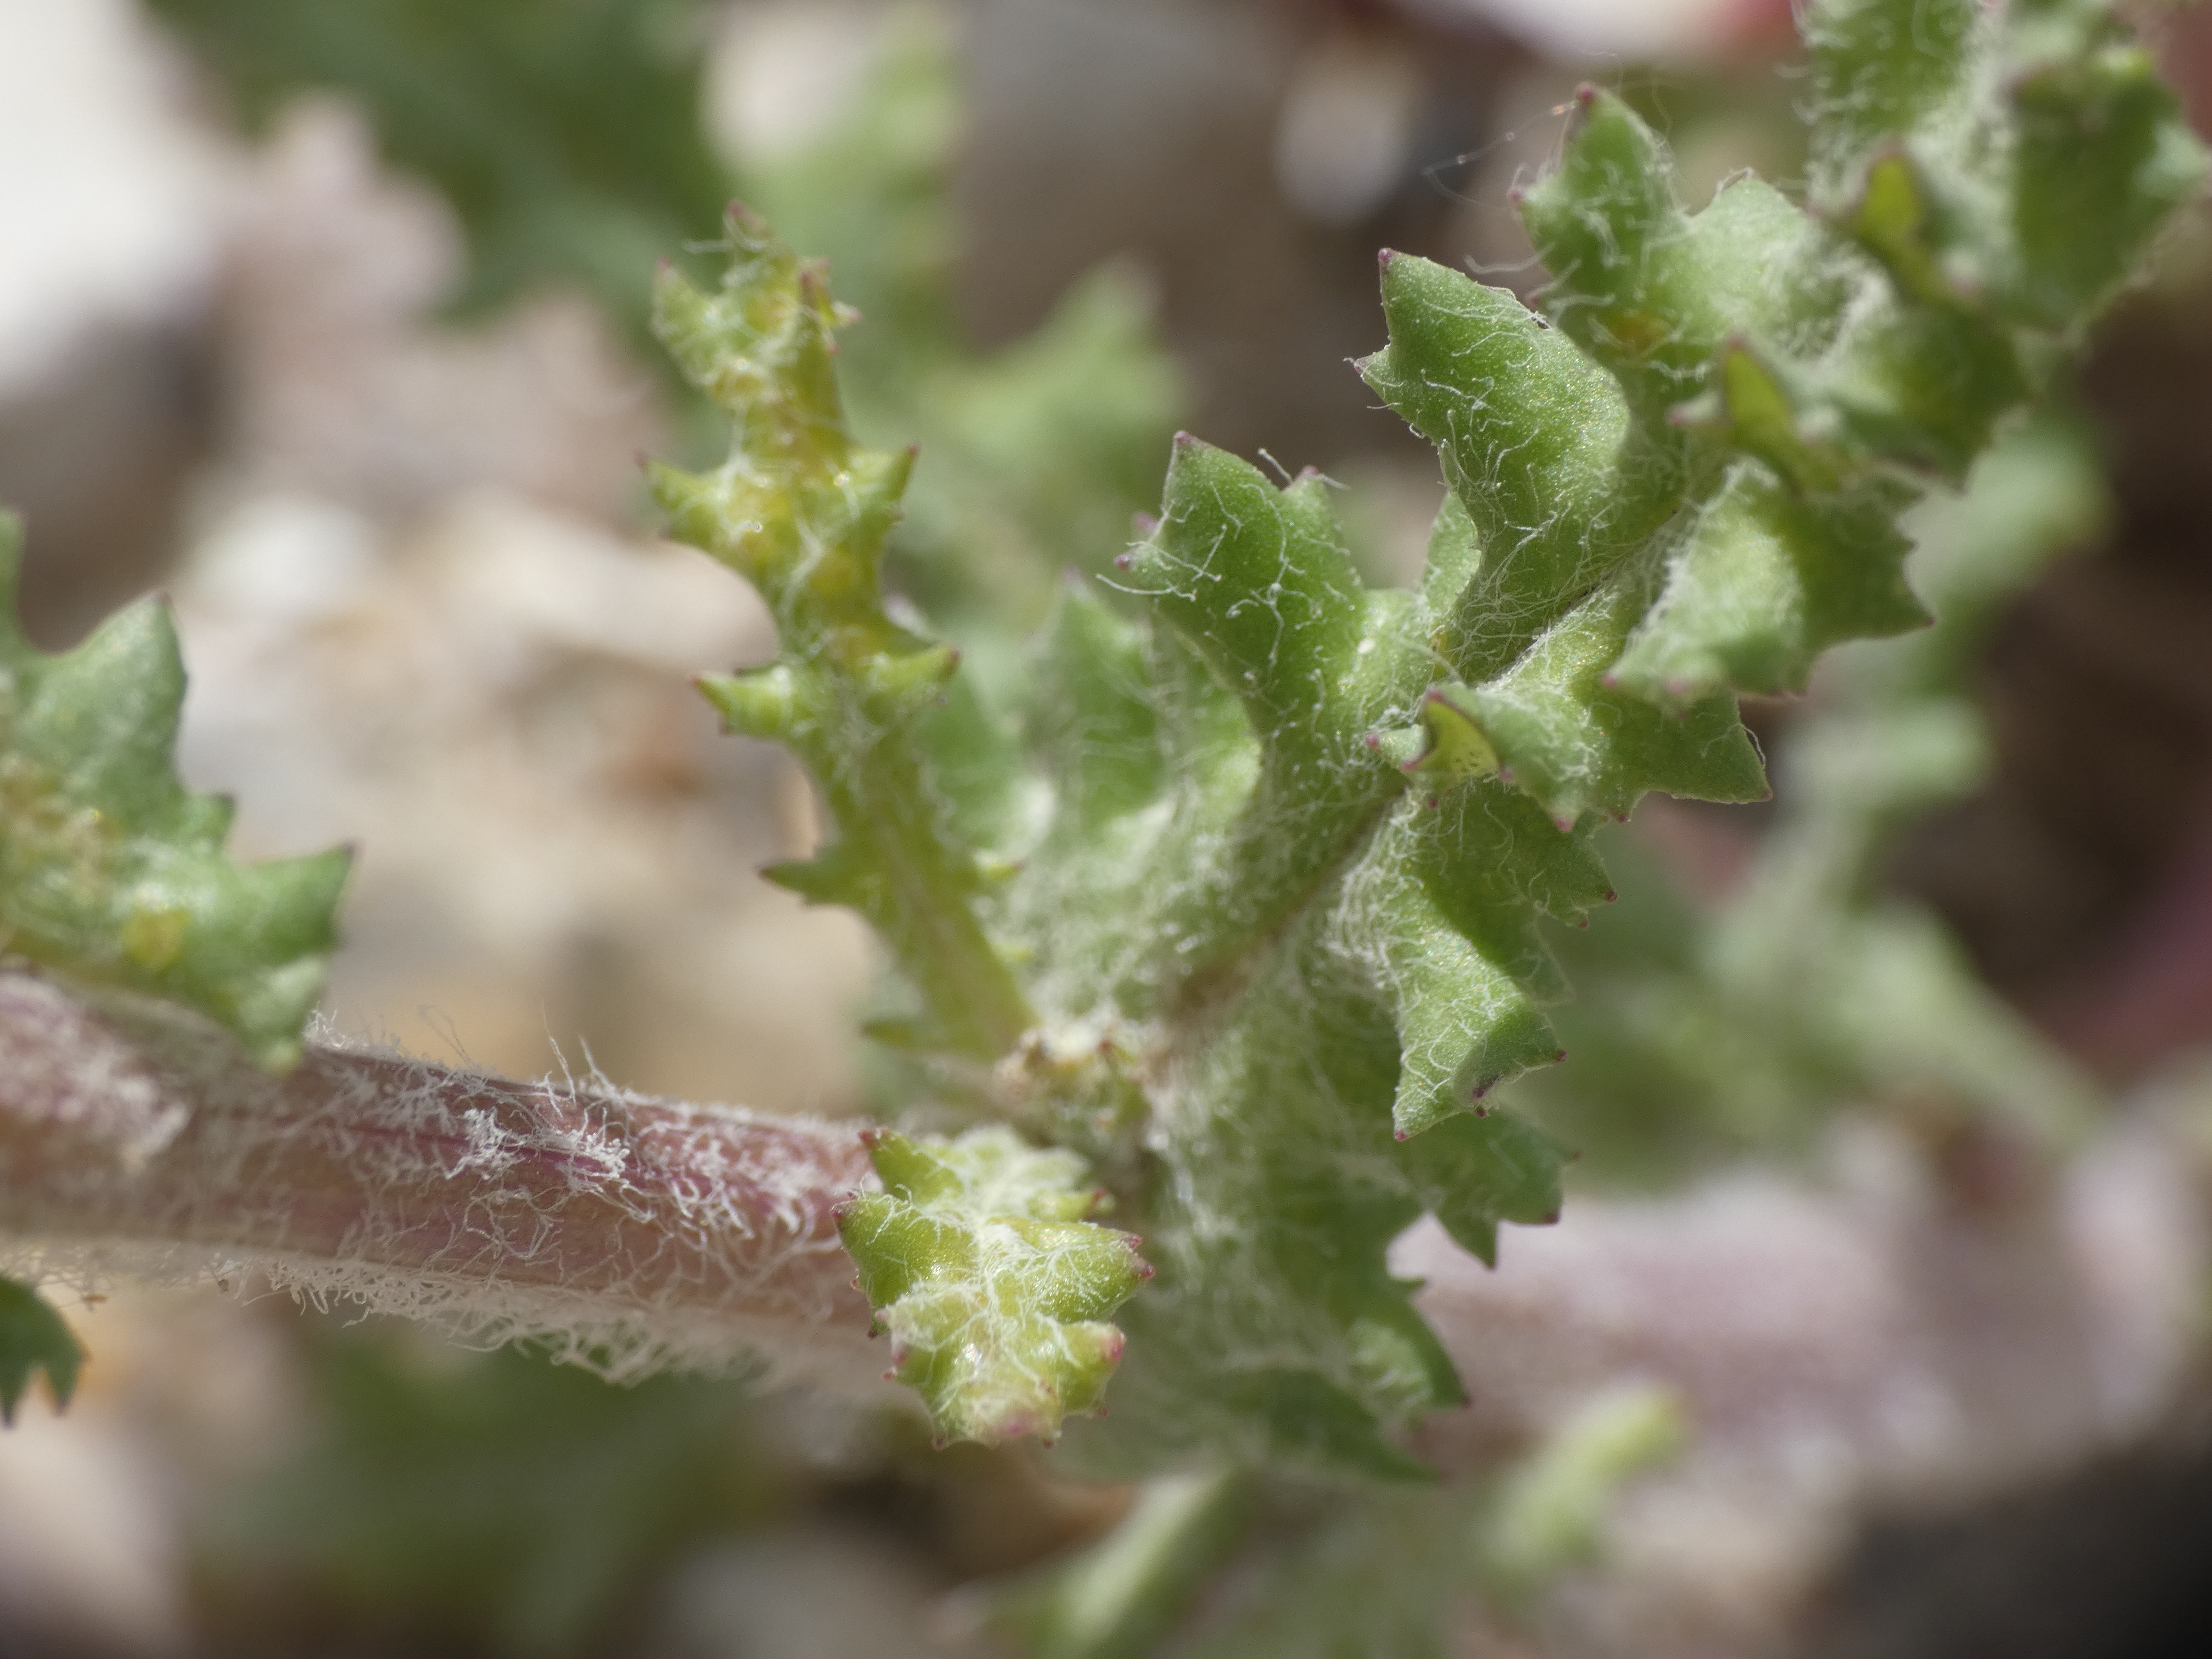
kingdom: Plantae
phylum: Tracheophyta
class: Magnoliopsida
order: Asterales
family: Asteraceae
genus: Senecio
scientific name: Senecio leucanthemifolius
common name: Vår-brandbæger
